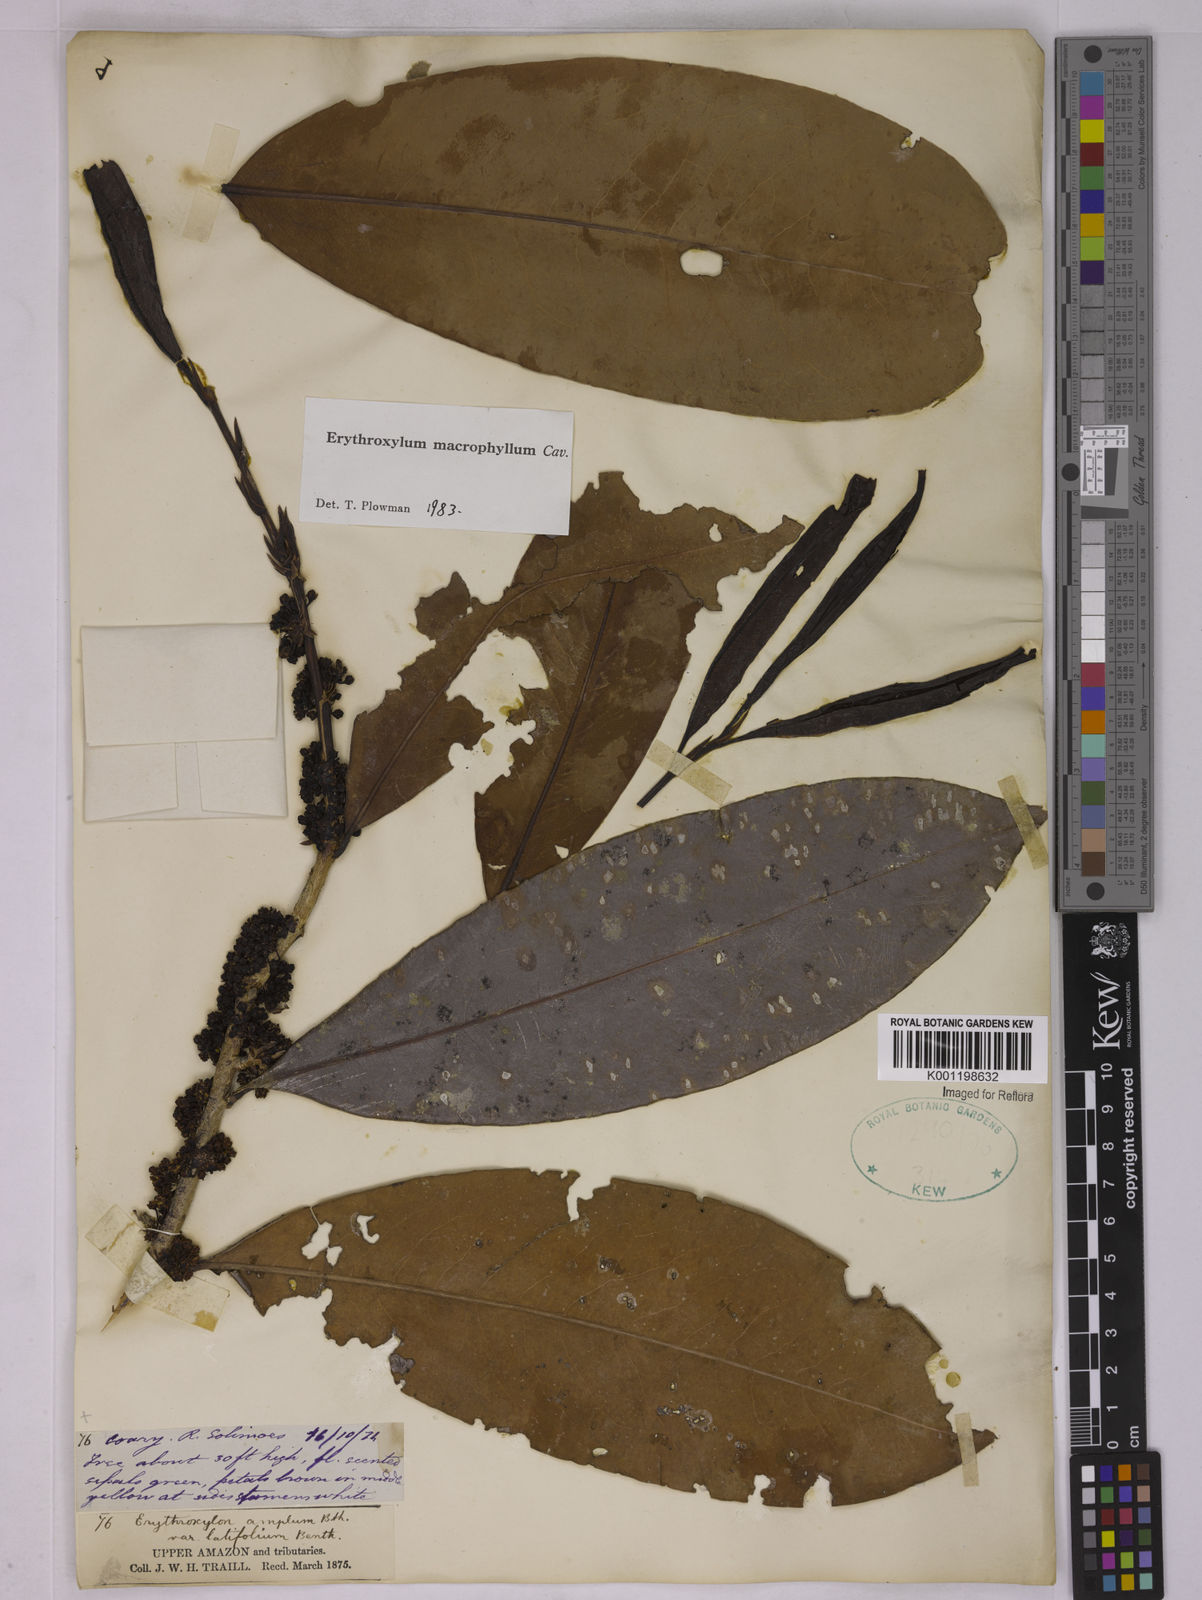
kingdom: Plantae
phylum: Tracheophyta
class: Magnoliopsida
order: Malpighiales
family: Erythroxylaceae
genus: Erythroxylum
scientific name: Erythroxylum macrophyllum
